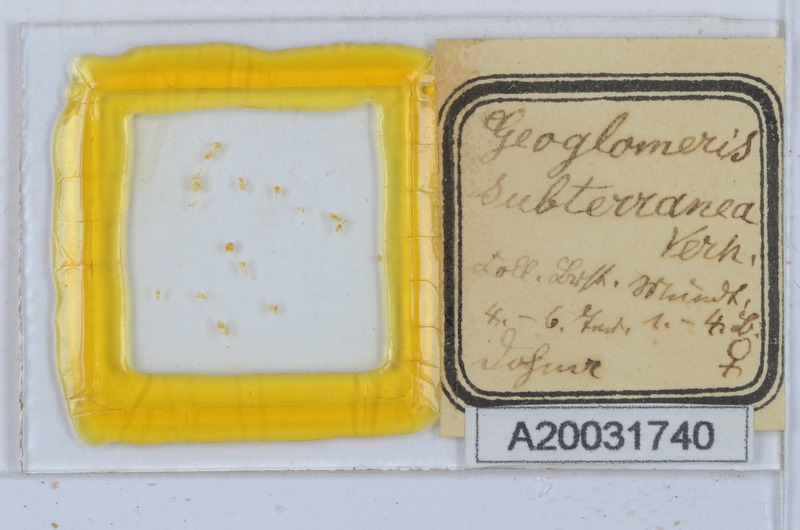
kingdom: Animalia
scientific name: Animalia
